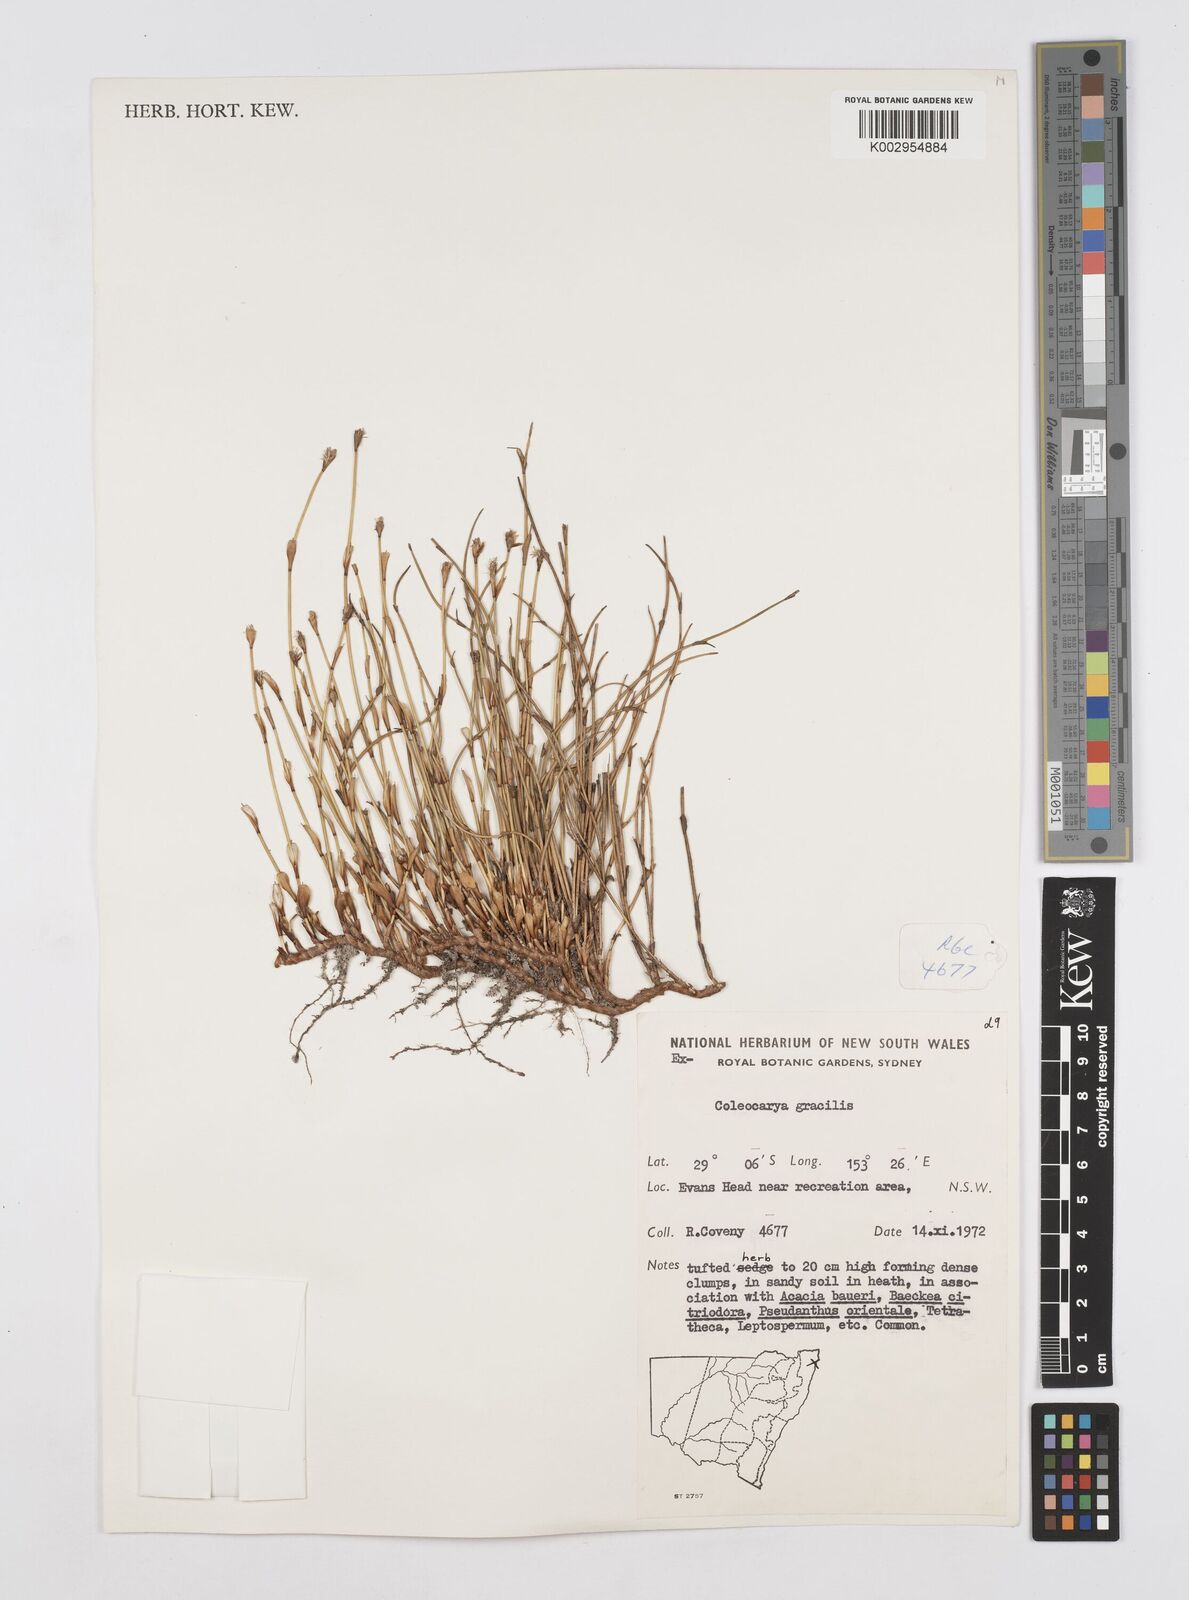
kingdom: Plantae
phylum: Tracheophyta
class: Liliopsida
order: Poales
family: Restionaceae
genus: Coleocarya
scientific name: Coleocarya gracilis
